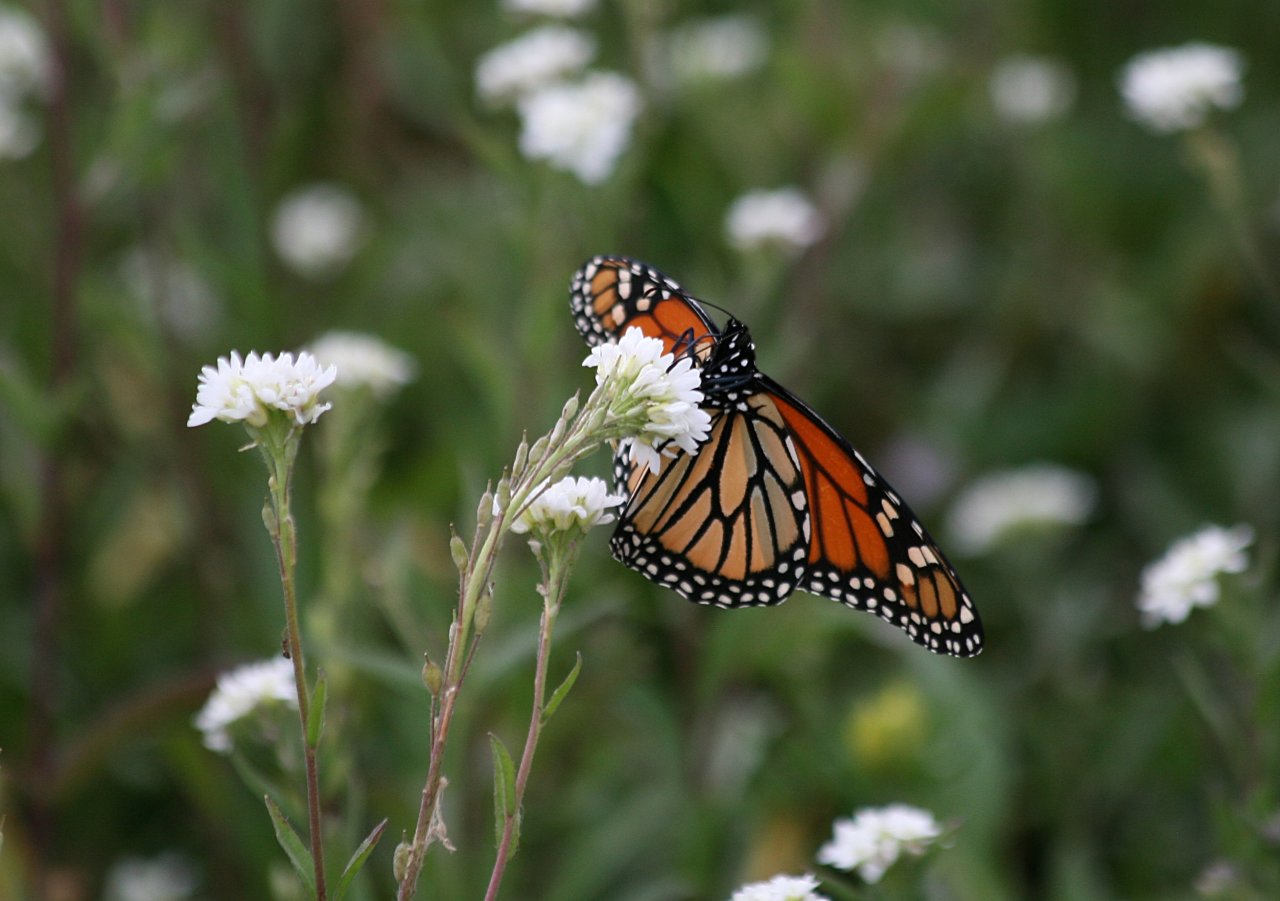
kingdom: Animalia
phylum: Arthropoda
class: Insecta
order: Lepidoptera
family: Nymphalidae
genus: Danaus
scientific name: Danaus plexippus
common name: Monarch
